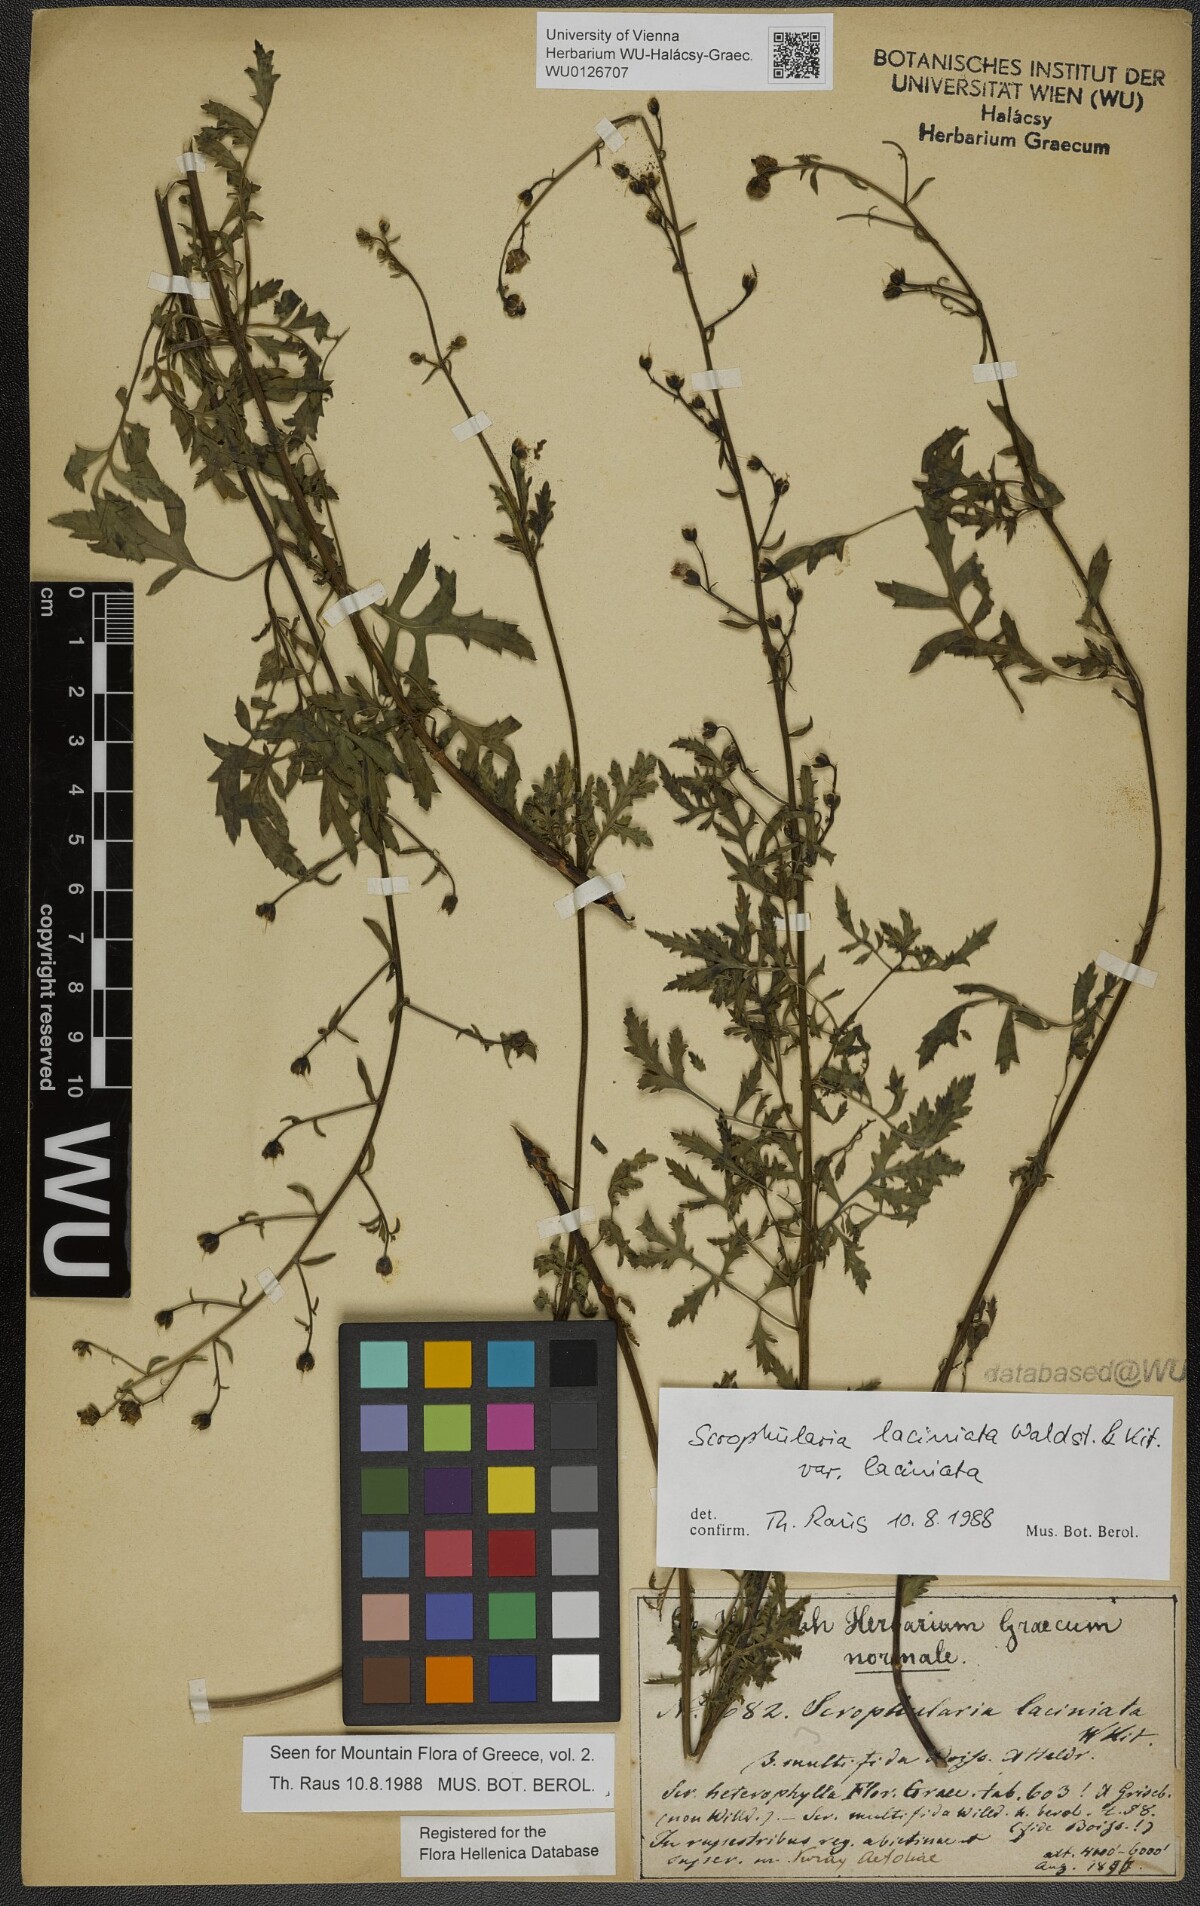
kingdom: Plantae
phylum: Tracheophyta
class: Magnoliopsida
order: Lamiales
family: Scrophulariaceae
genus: Scrophularia
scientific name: Scrophularia laciniata
